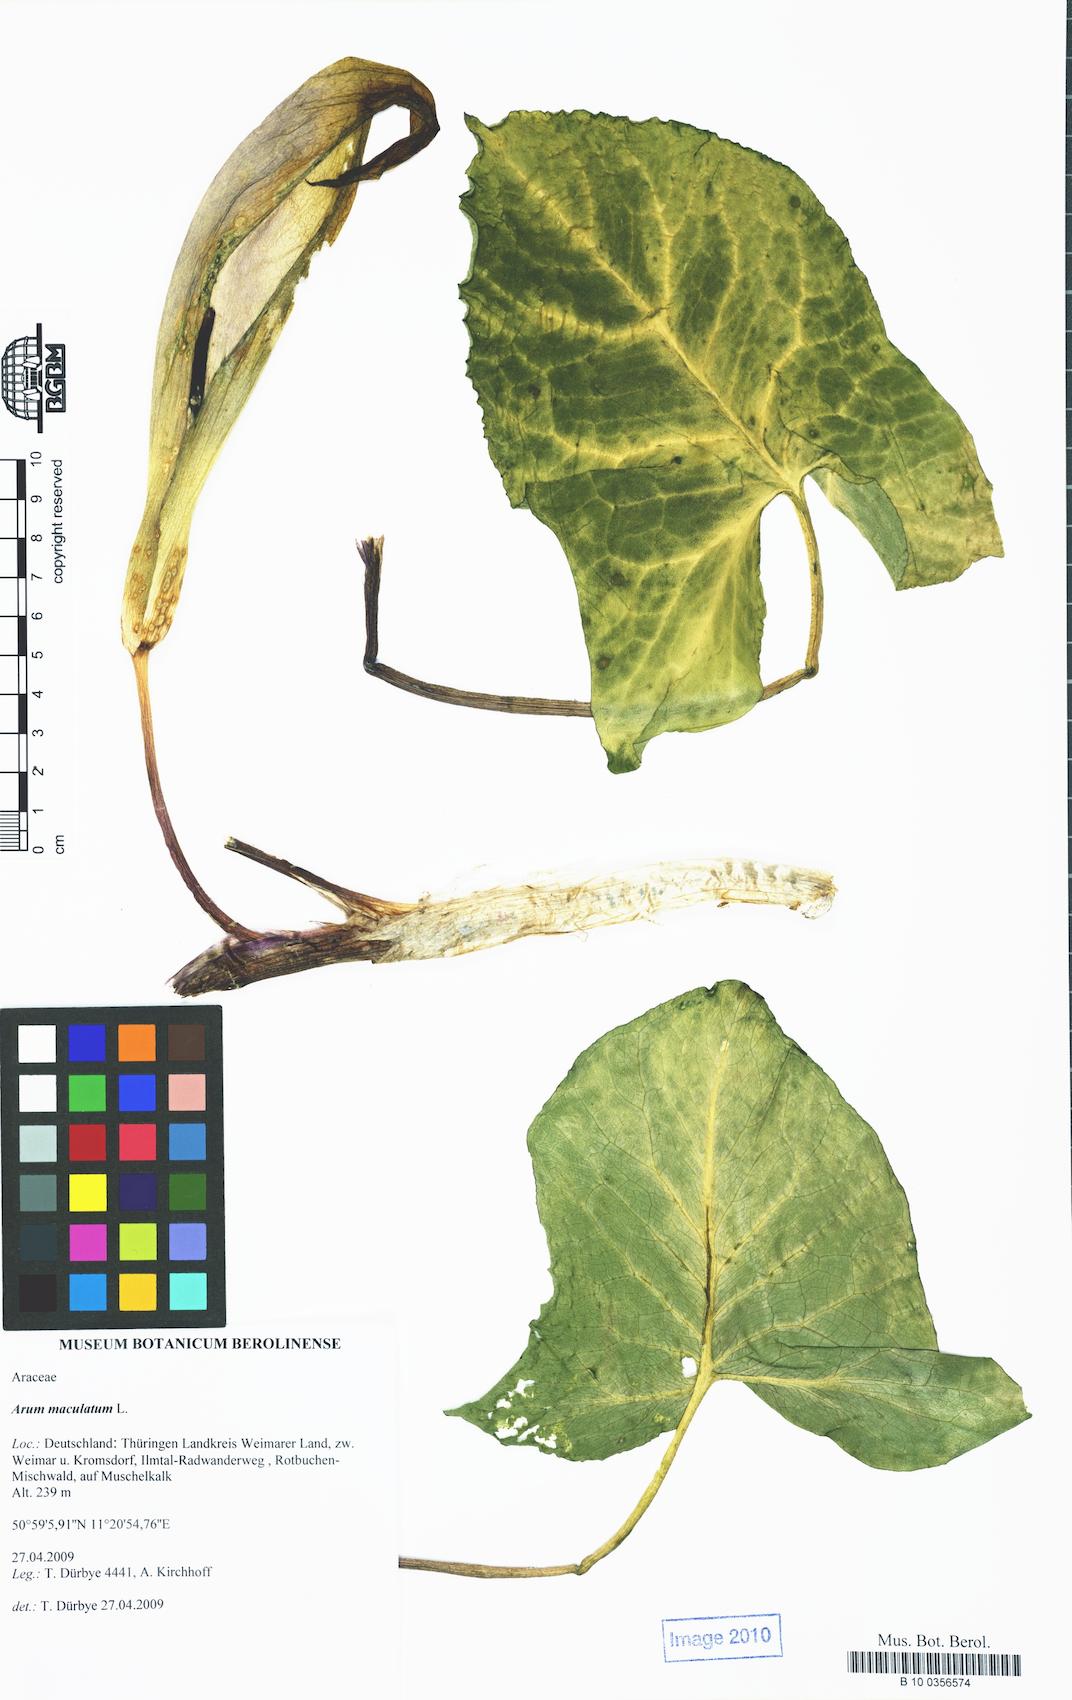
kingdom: Plantae
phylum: Tracheophyta
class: Liliopsida
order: Alismatales
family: Araceae
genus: Arum
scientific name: Arum maculatum
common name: Lords-and-ladies
